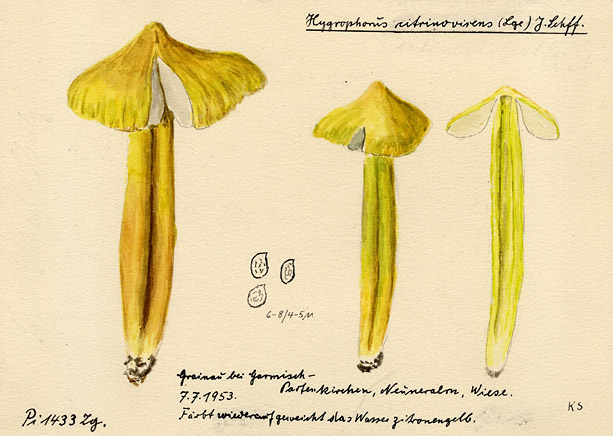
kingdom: Fungi
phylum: Basidiomycota
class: Agaricomycetes
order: Agaricales
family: Hygrophoraceae
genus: Hygrocybe
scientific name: Hygrocybe citrinovirens
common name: Citrine waxcap
